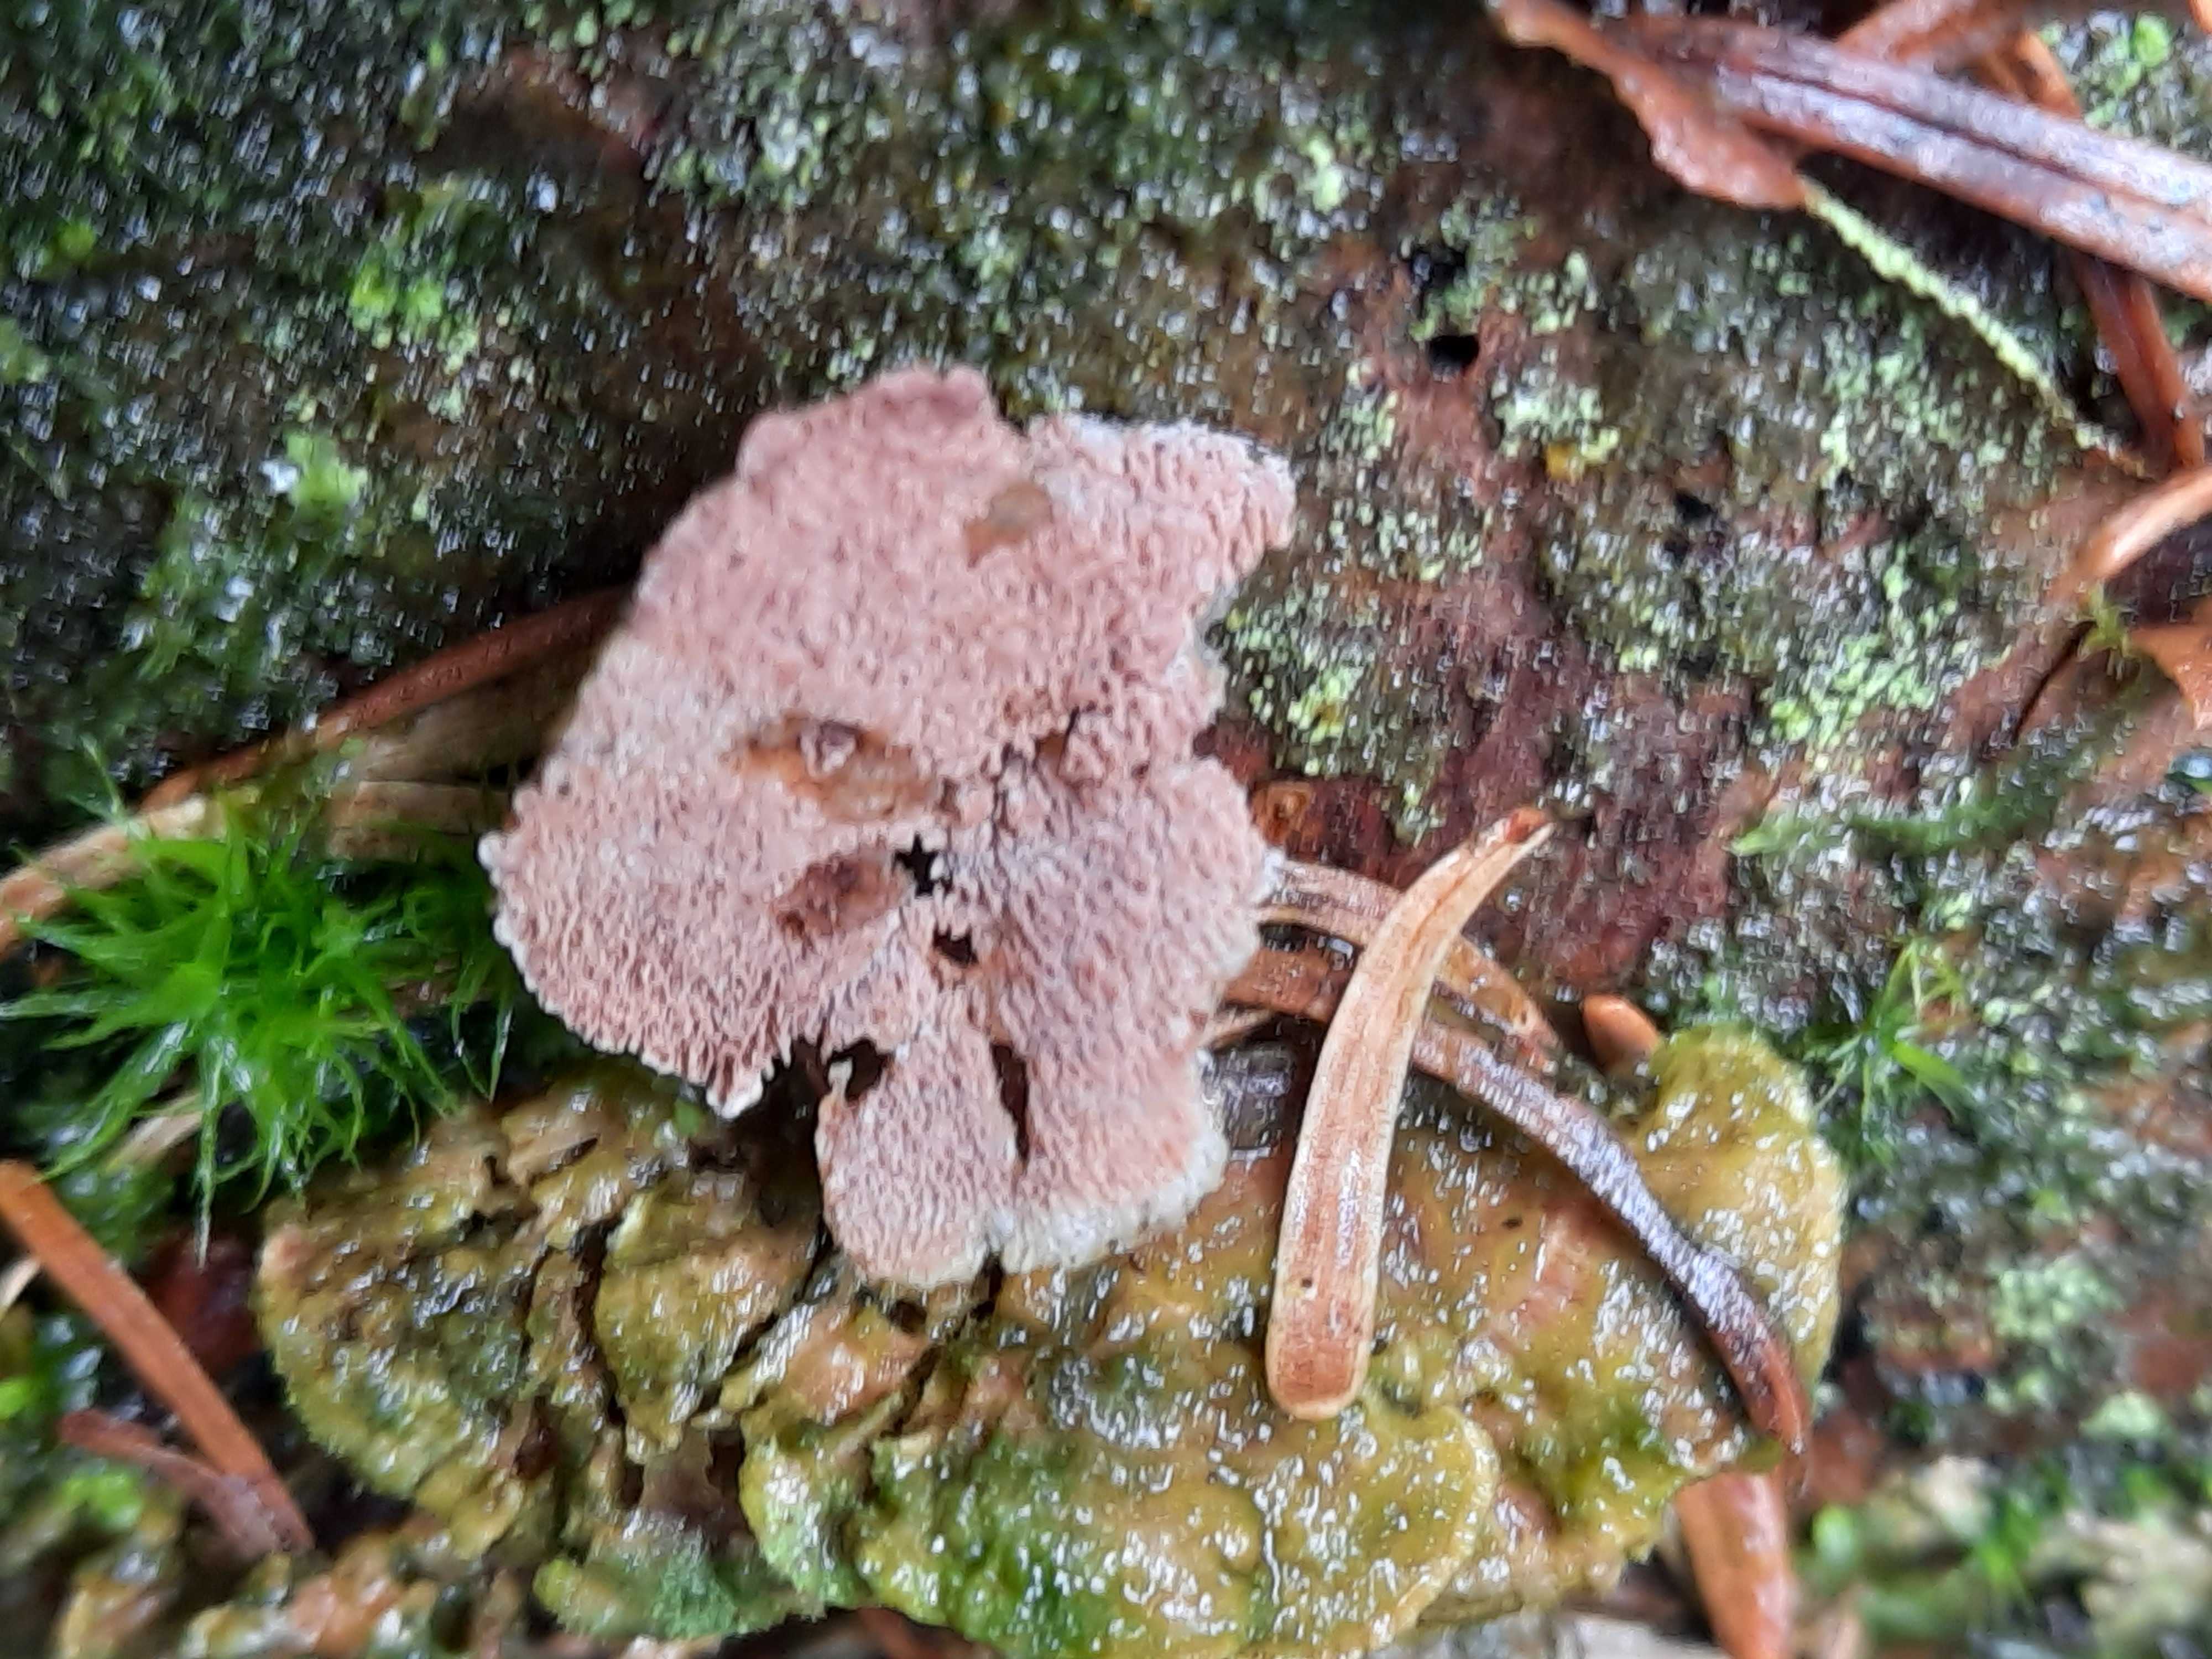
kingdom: Fungi
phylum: Basidiomycota
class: Agaricomycetes
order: Polyporales
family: Polyporaceae
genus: Trichaptum
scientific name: Trichaptum
